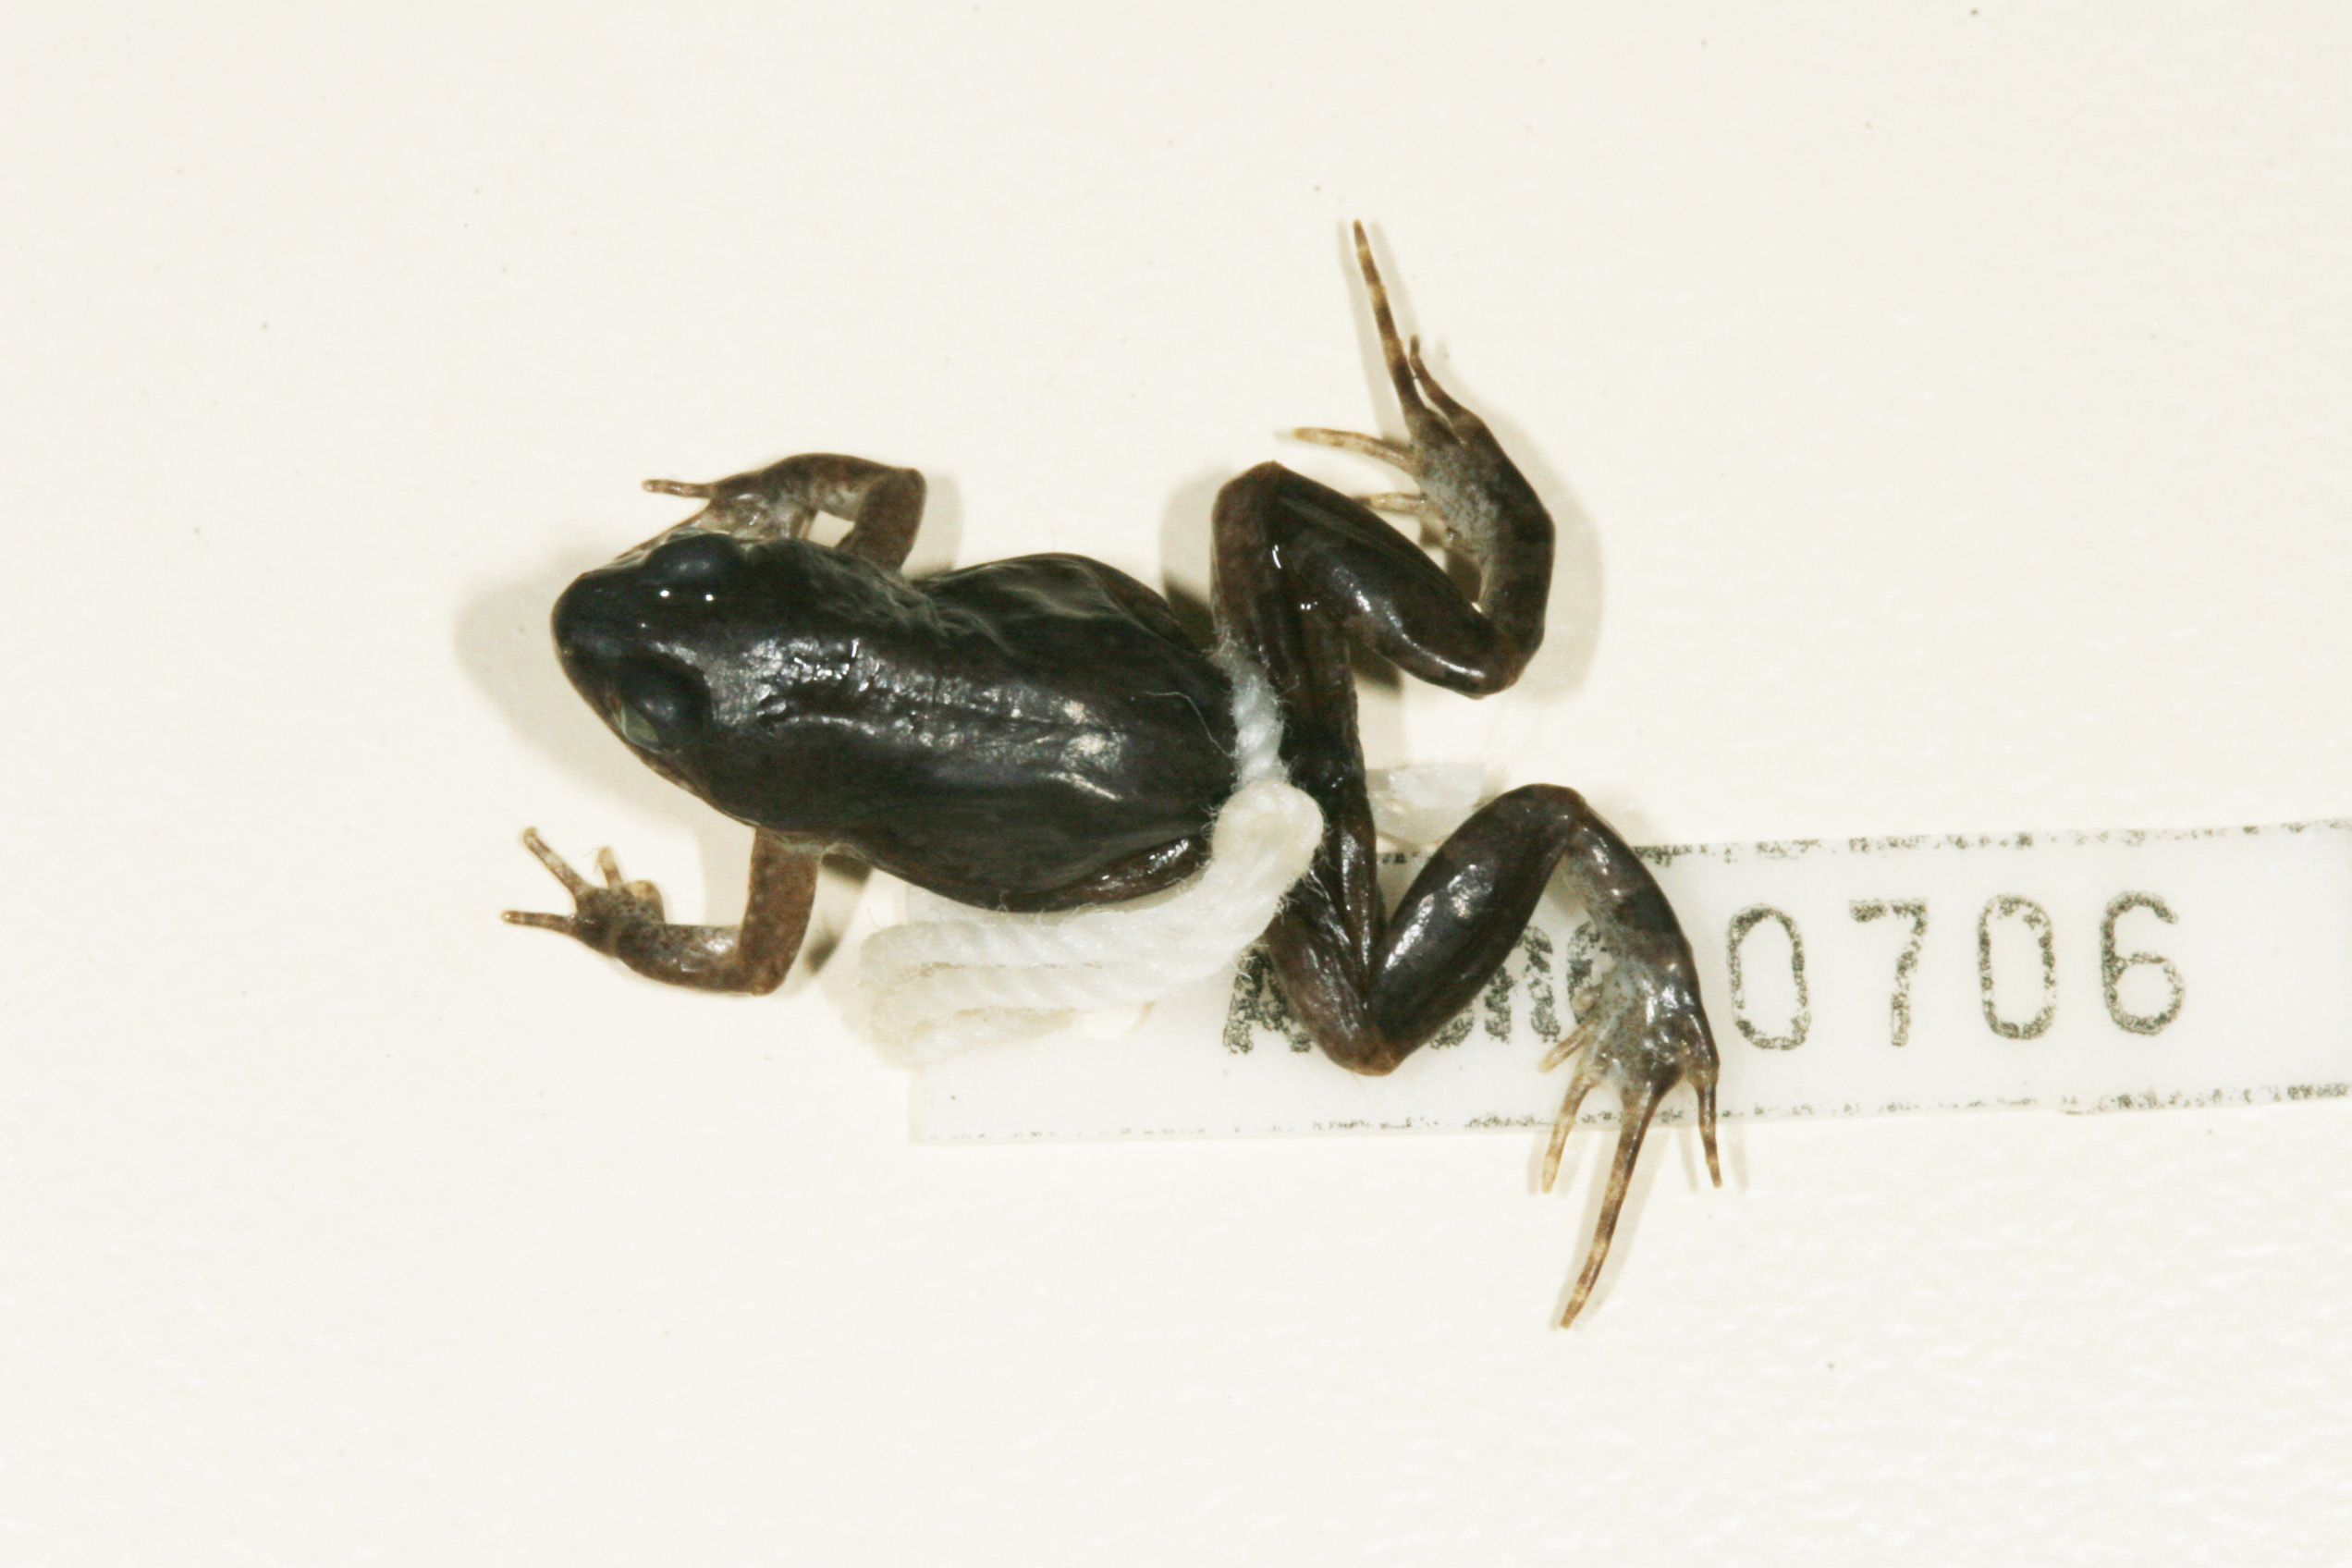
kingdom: Animalia
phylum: Chordata
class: Amphibia
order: Anura
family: Pyxicephalidae
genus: Cacosternum
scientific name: Cacosternum boettgeri
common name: Boettger's frog
